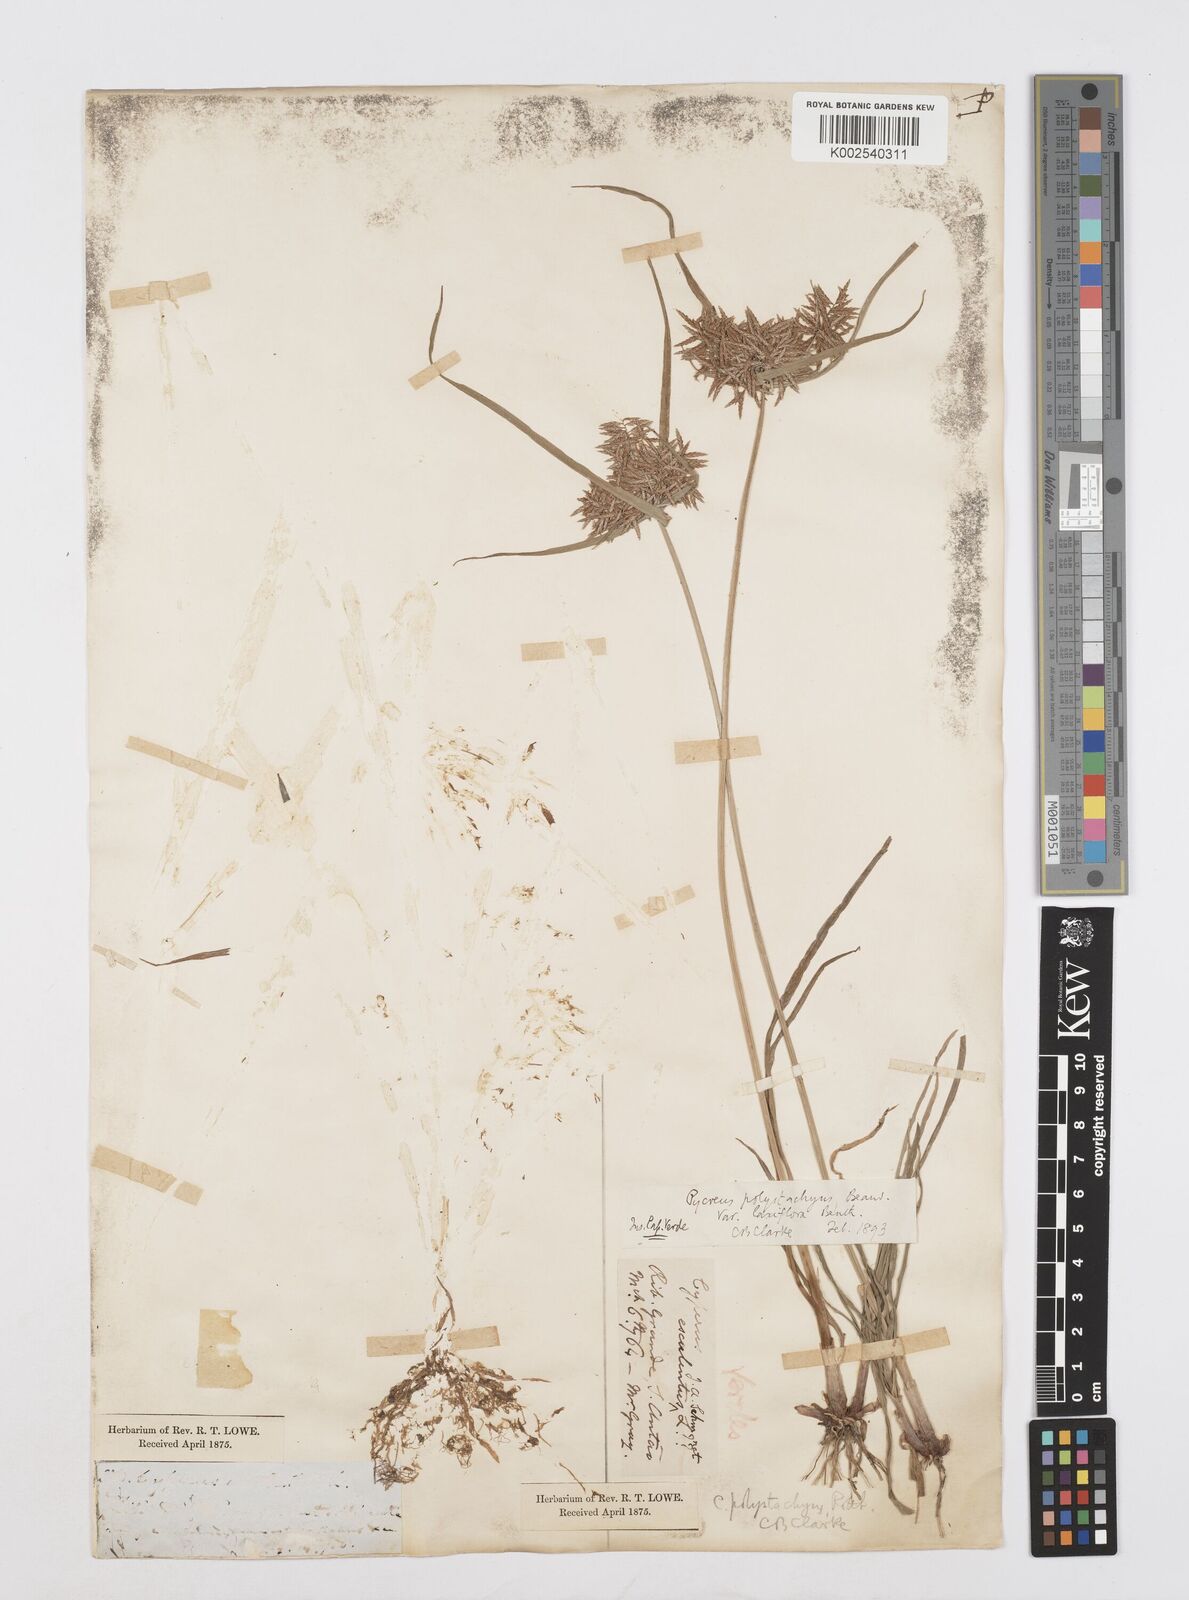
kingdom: Plantae
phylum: Tracheophyta
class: Liliopsida
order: Poales
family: Cyperaceae
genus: Cyperus
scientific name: Cyperus polystachyos
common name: Bunchy flat sedge
